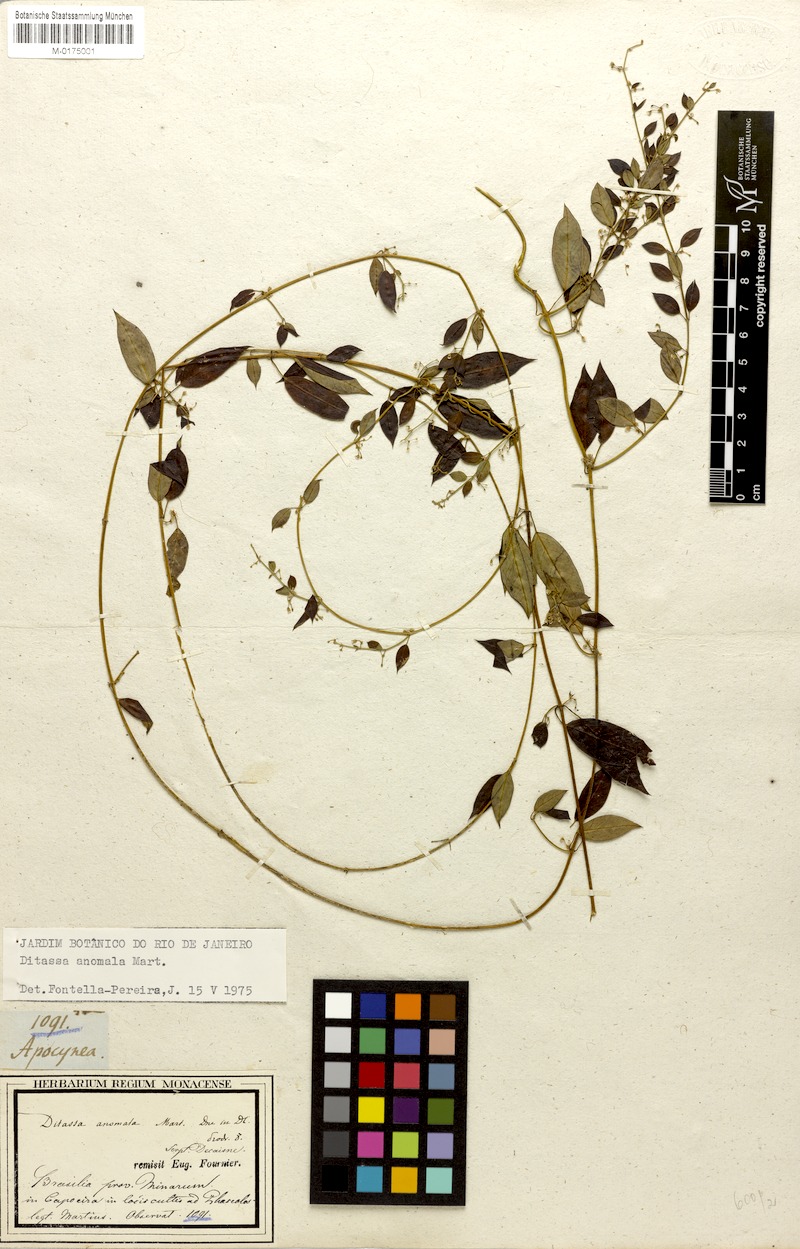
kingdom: Plantae
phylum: Tracheophyta
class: Magnoliopsida
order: Gentianales
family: Apocynaceae
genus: Metastelma
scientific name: Metastelma burchellii
